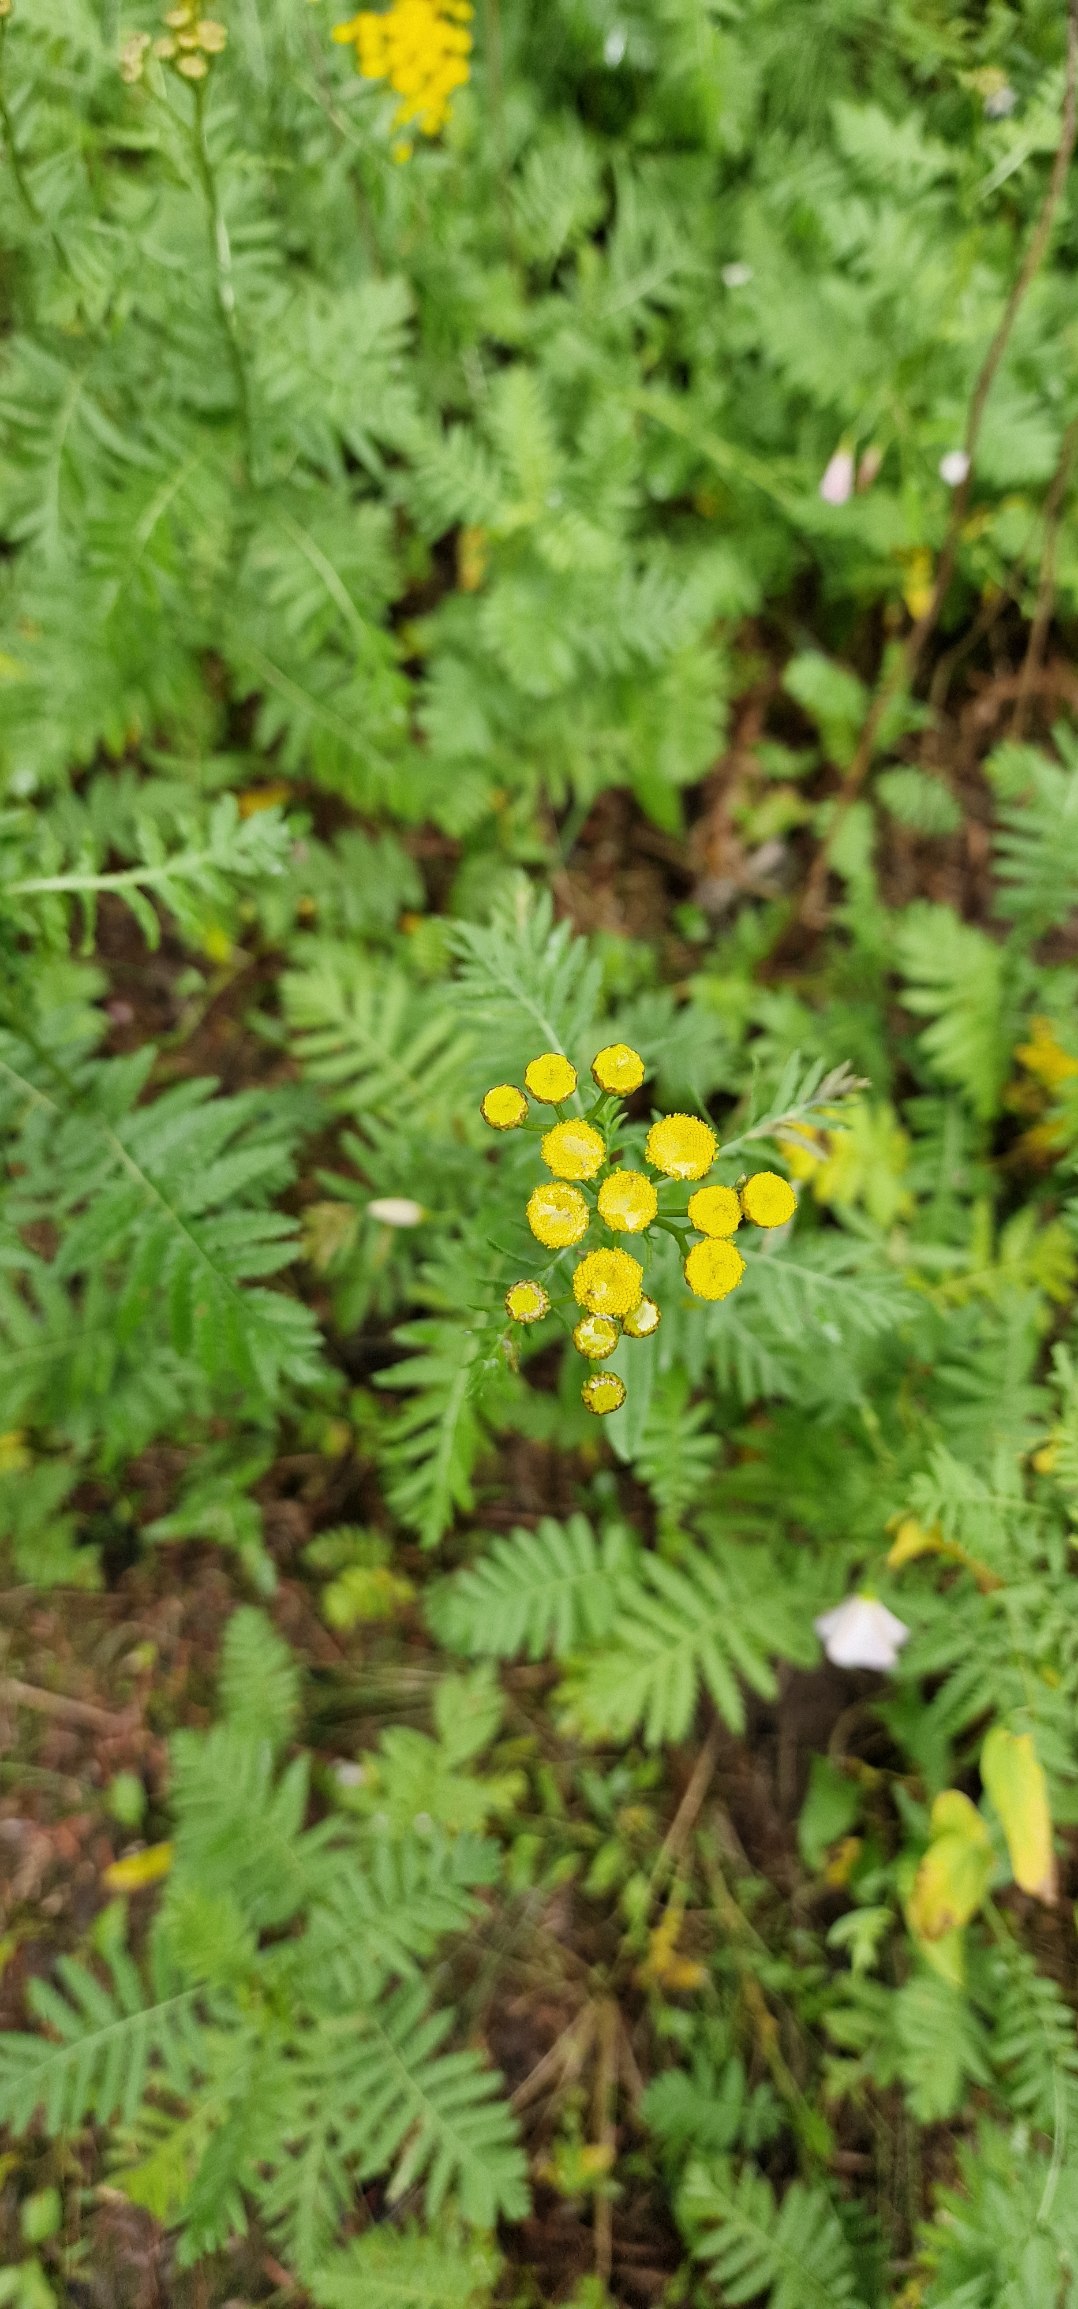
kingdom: Plantae
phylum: Tracheophyta
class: Magnoliopsida
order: Asterales
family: Asteraceae
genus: Tanacetum
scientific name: Tanacetum vulgare
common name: Rejnfan
